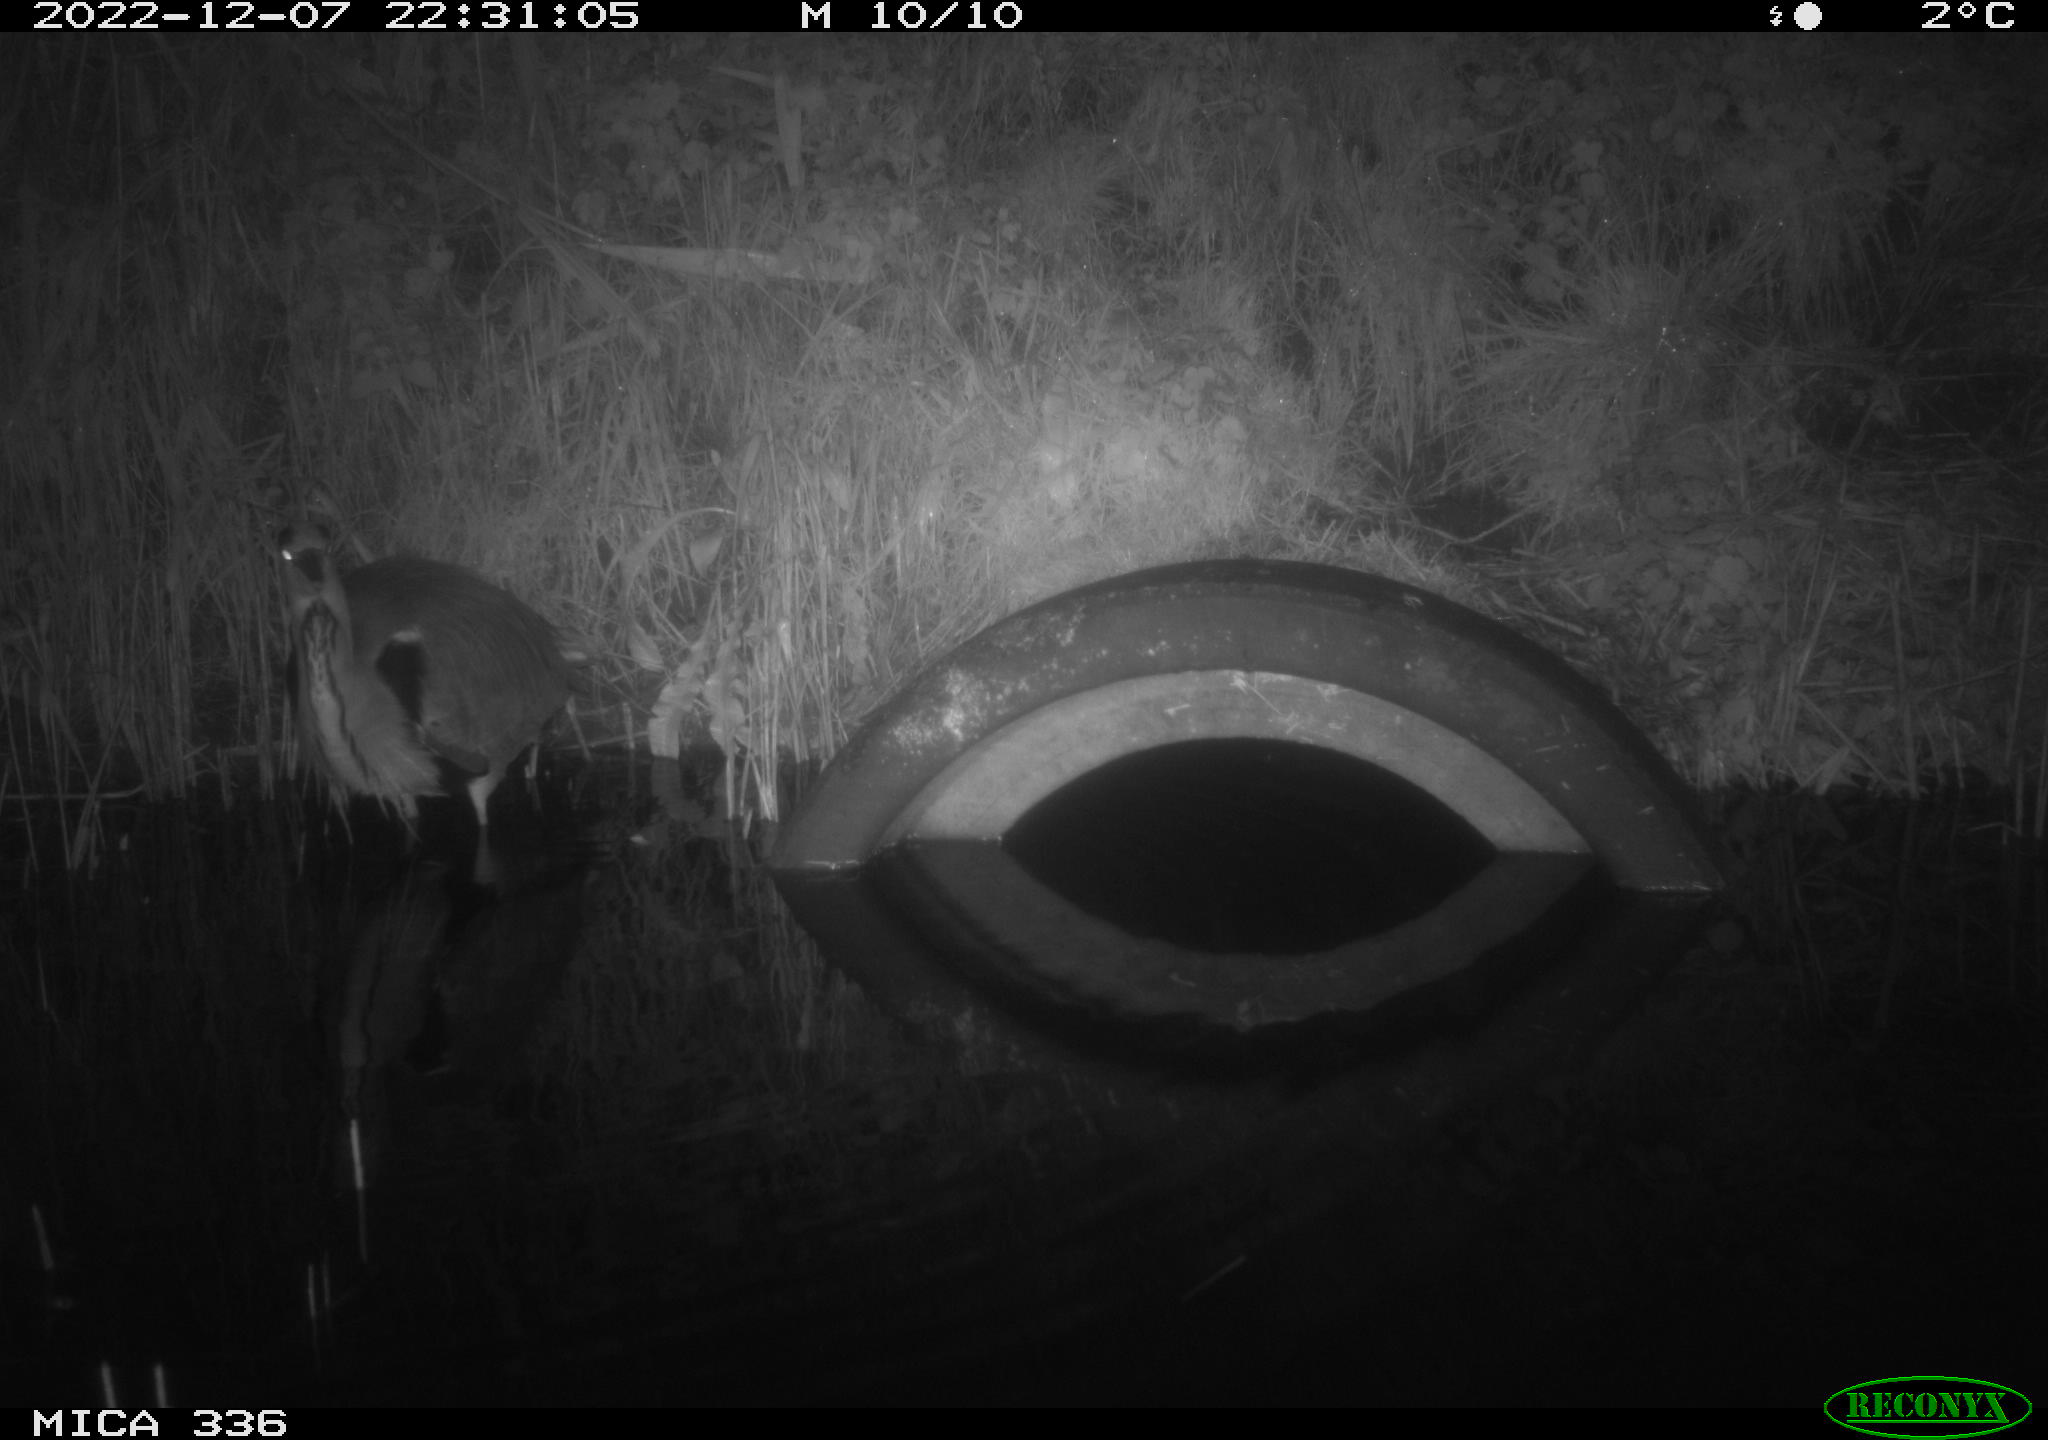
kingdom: Animalia
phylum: Chordata
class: Aves
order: Pelecaniformes
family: Ardeidae
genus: Ardea
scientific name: Ardea cinerea
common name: Grey heron
